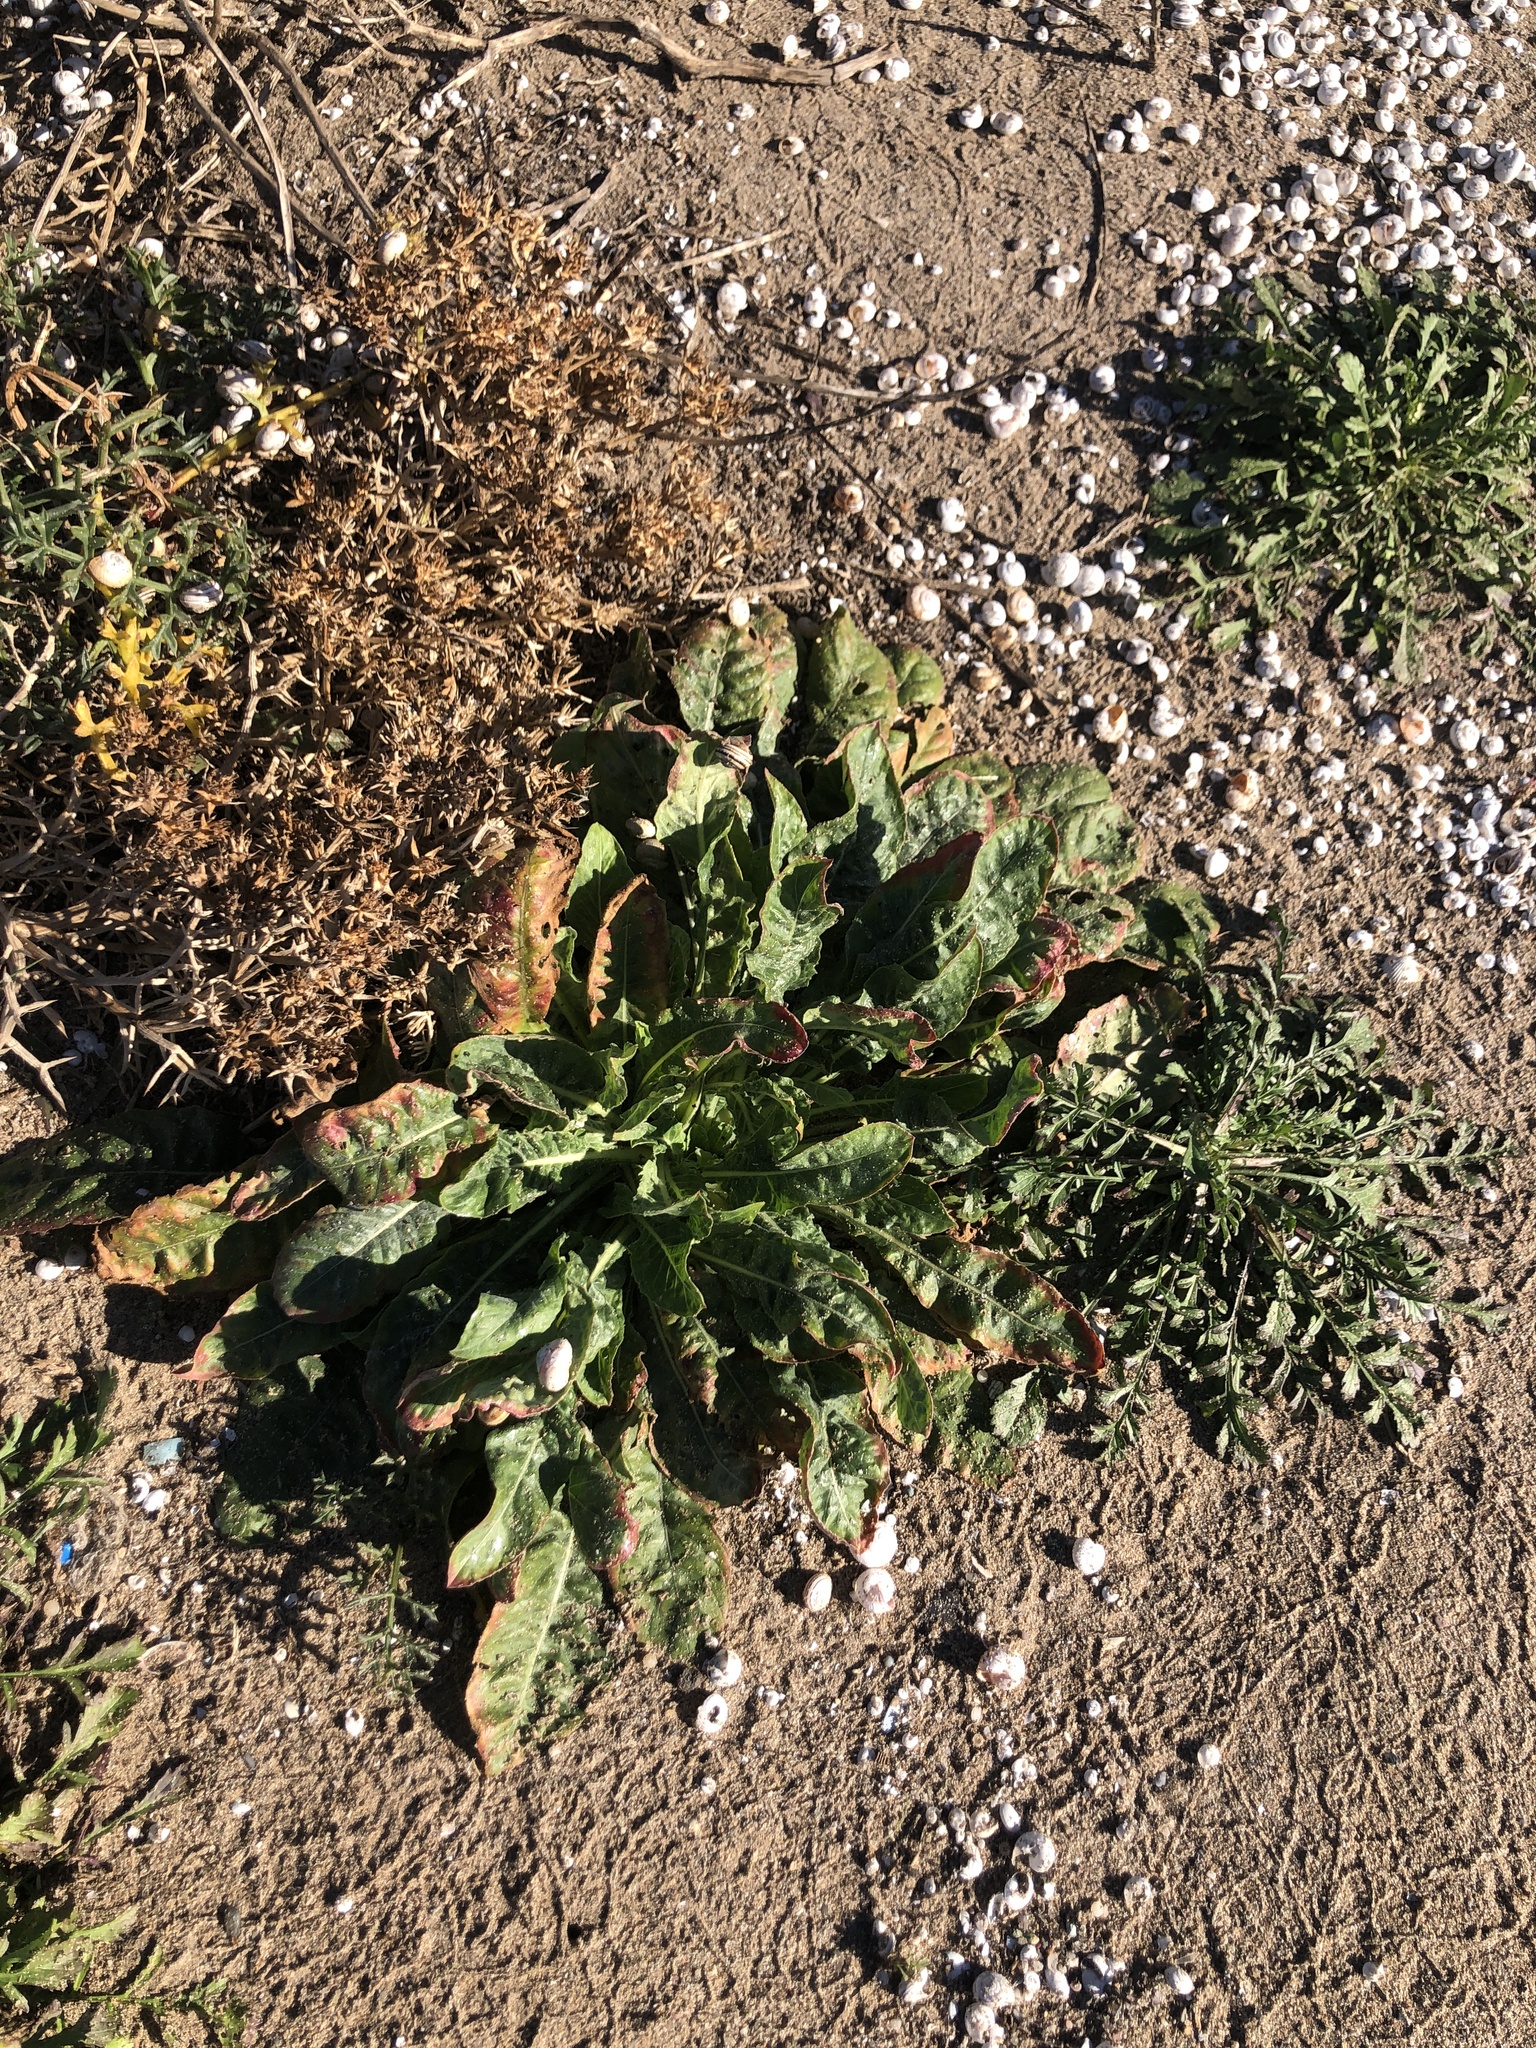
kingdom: Plantae
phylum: Tracheophyta
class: Magnoliopsida
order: Myrtales
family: Onagraceae
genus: Oenothera
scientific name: Oenothera glazioviana
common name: Large-flowered evening-primrose
